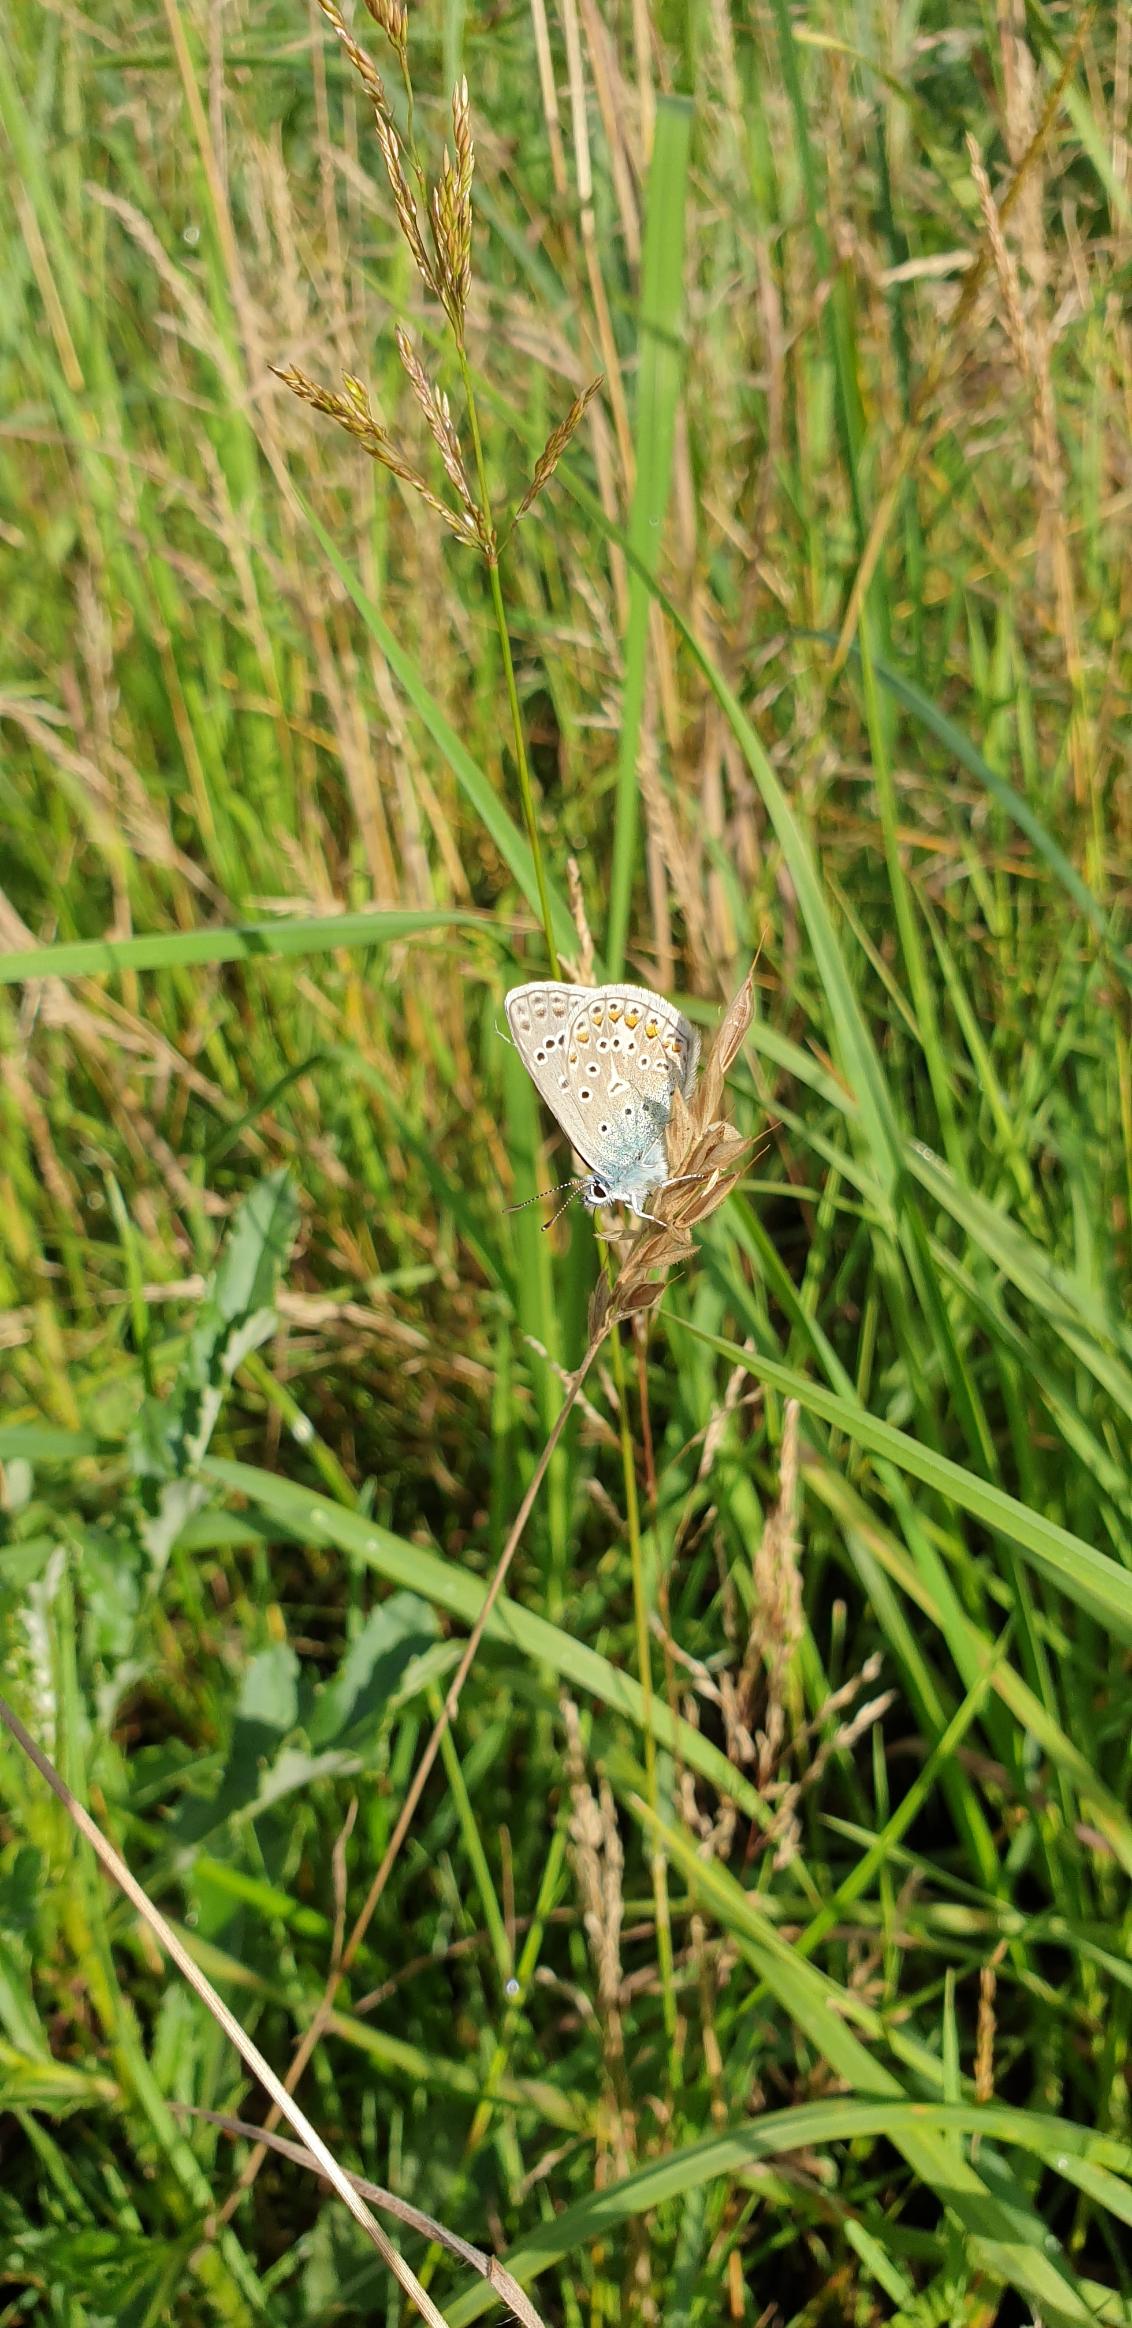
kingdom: Animalia
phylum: Arthropoda
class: Insecta
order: Lepidoptera
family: Lycaenidae
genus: Polyommatus
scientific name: Polyommatus icarus
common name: Almindelig blåfugl
